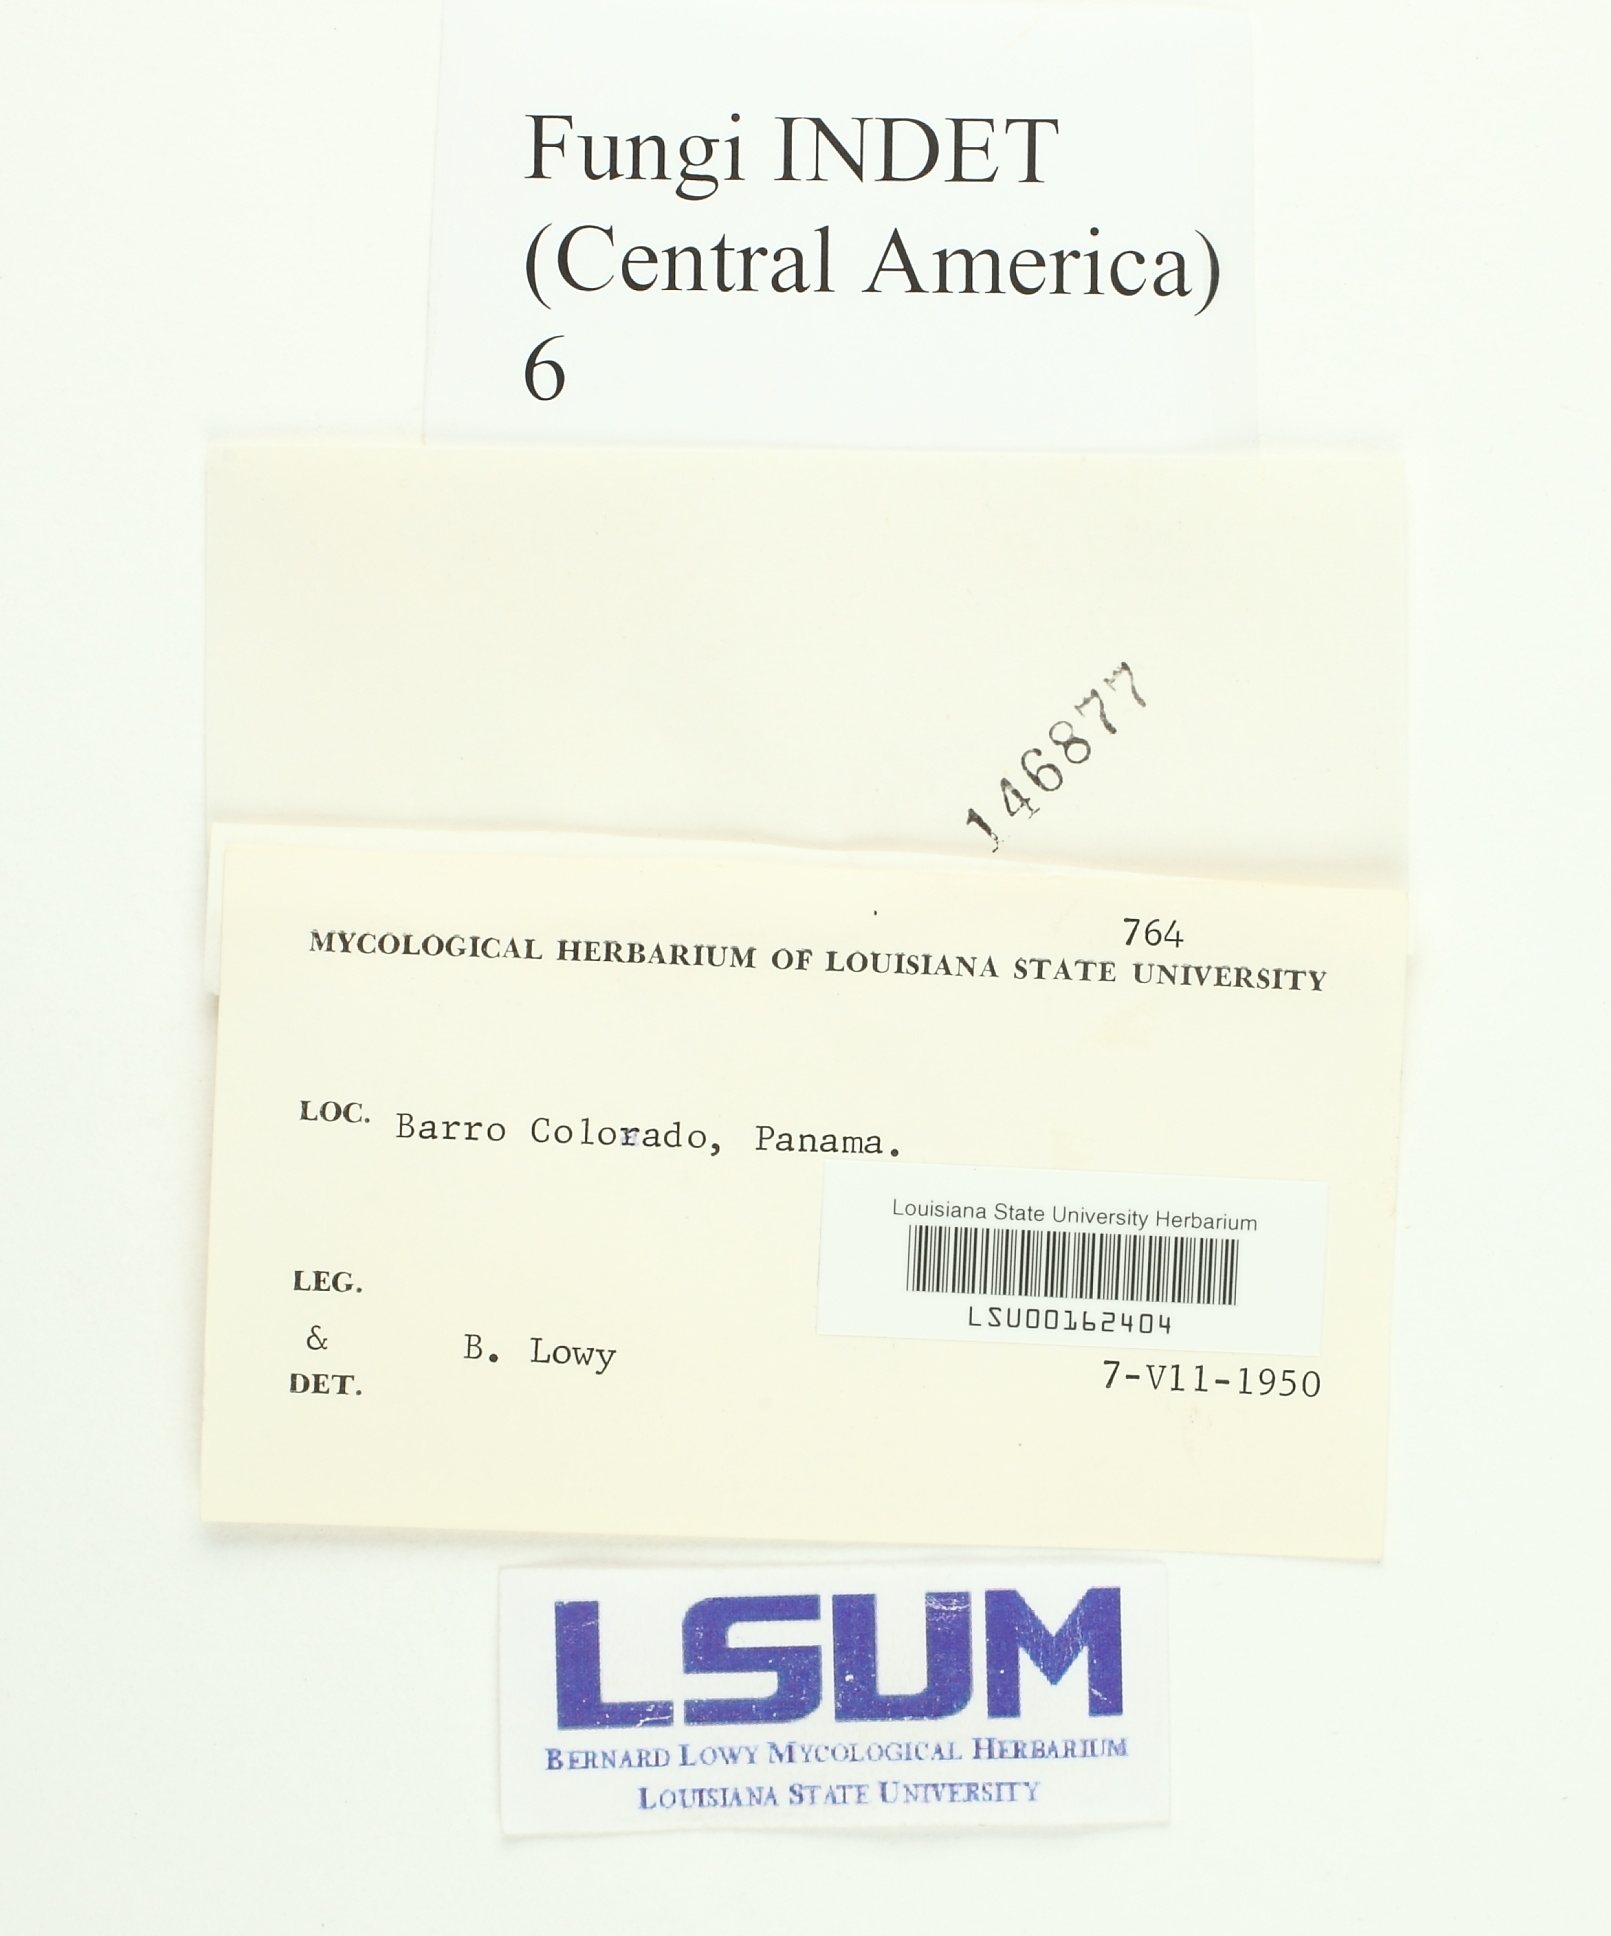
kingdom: Fungi
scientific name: Fungi
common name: Fungi
